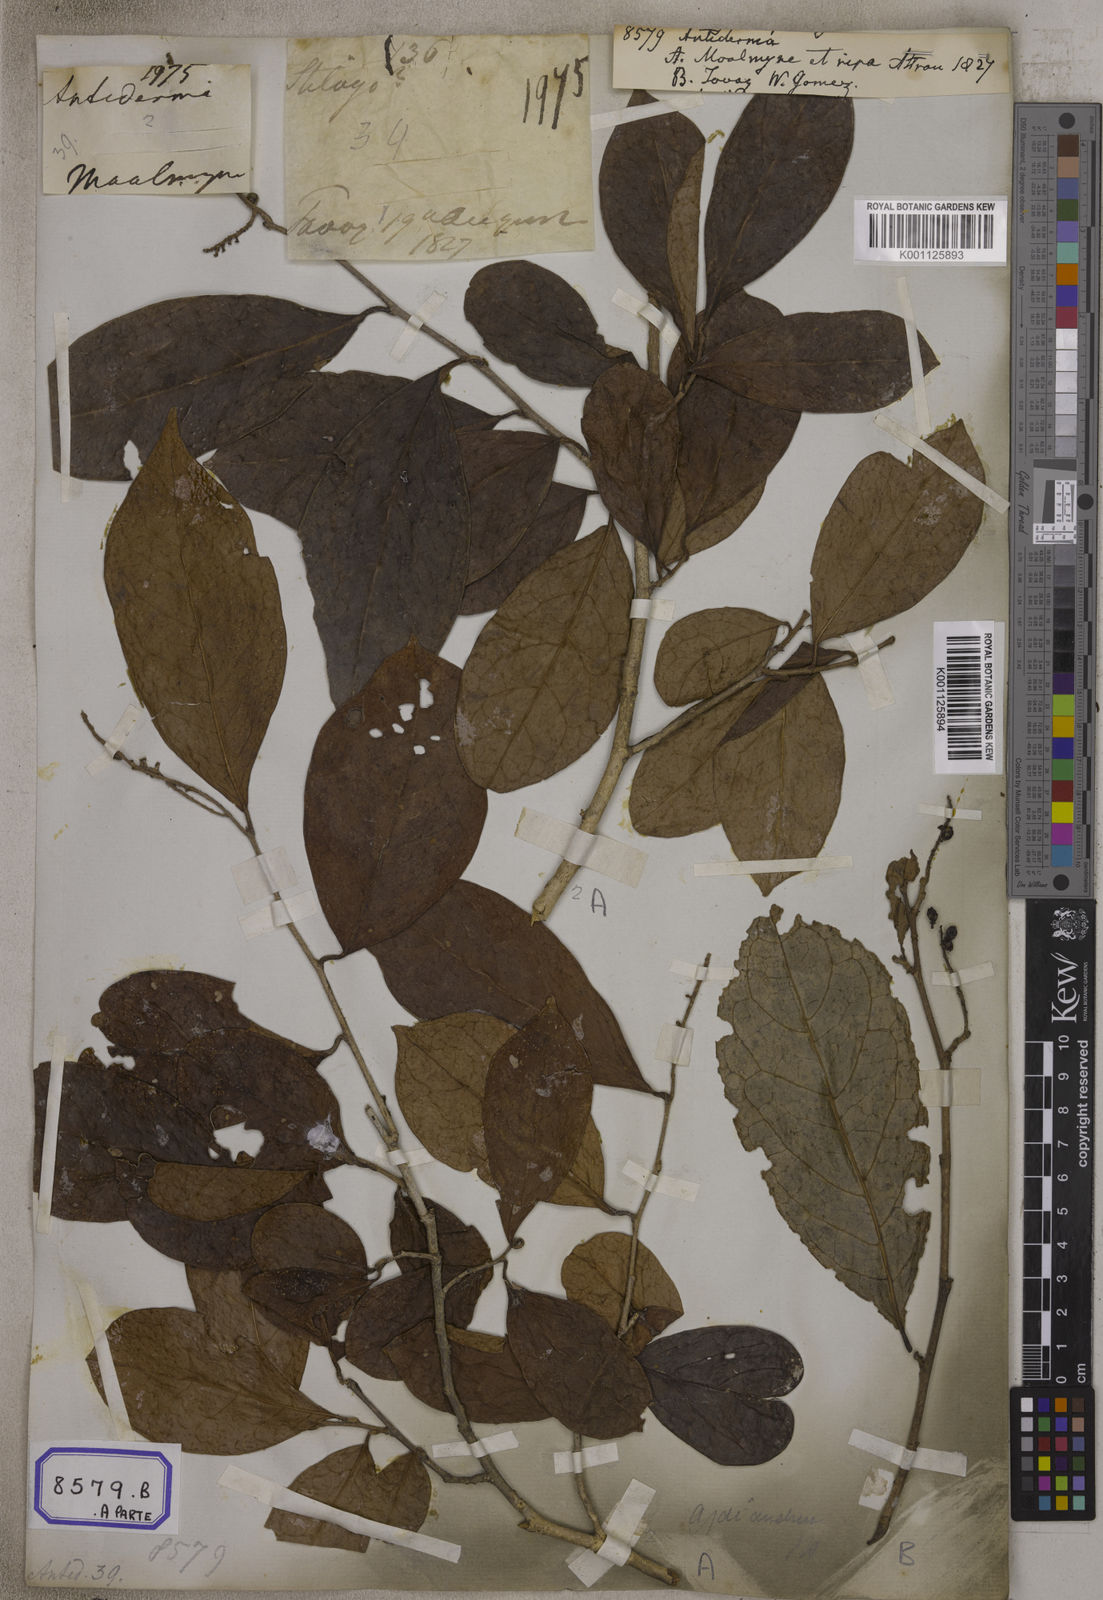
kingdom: Plantae
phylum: Tracheophyta
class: Magnoliopsida
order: Malpighiales
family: Phyllanthaceae
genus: Antidesma
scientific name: Antidesma
